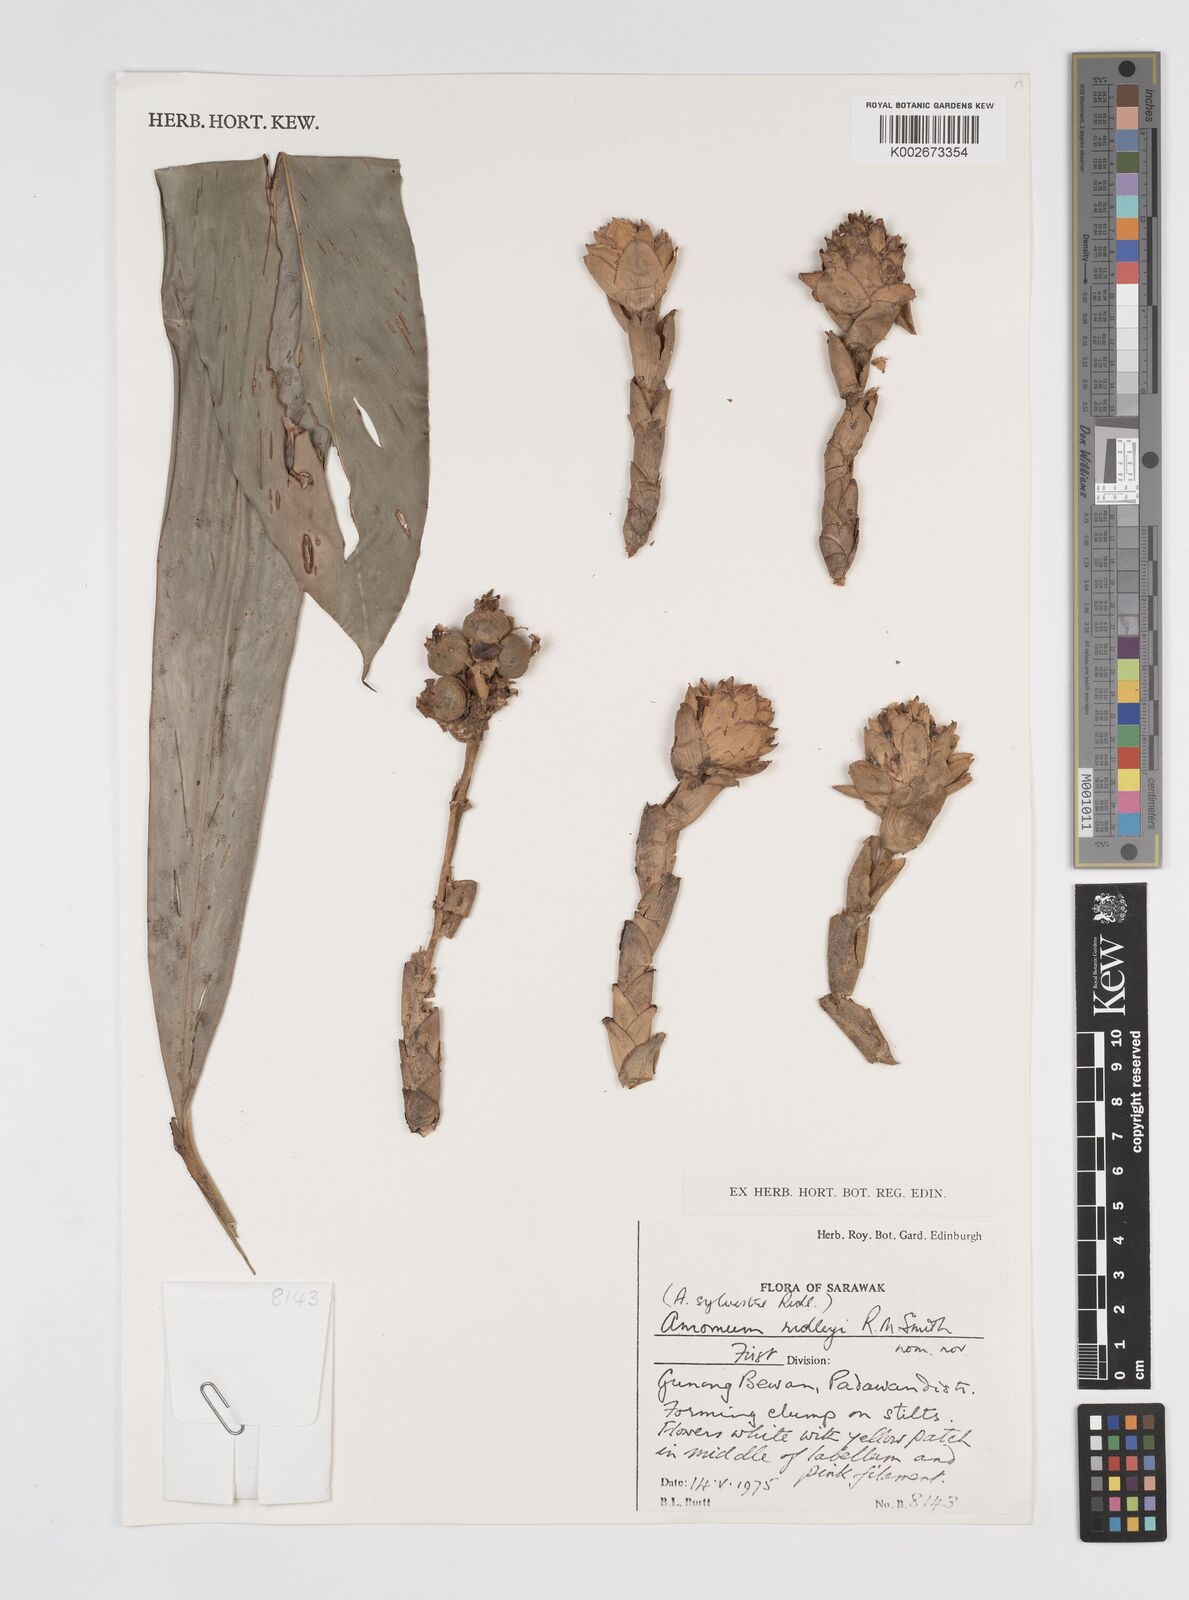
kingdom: Plantae
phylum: Tracheophyta
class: Liliopsida
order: Zingiberales
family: Zingiberaceae
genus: Sundamomum
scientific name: Sundamomum borealiborneense
